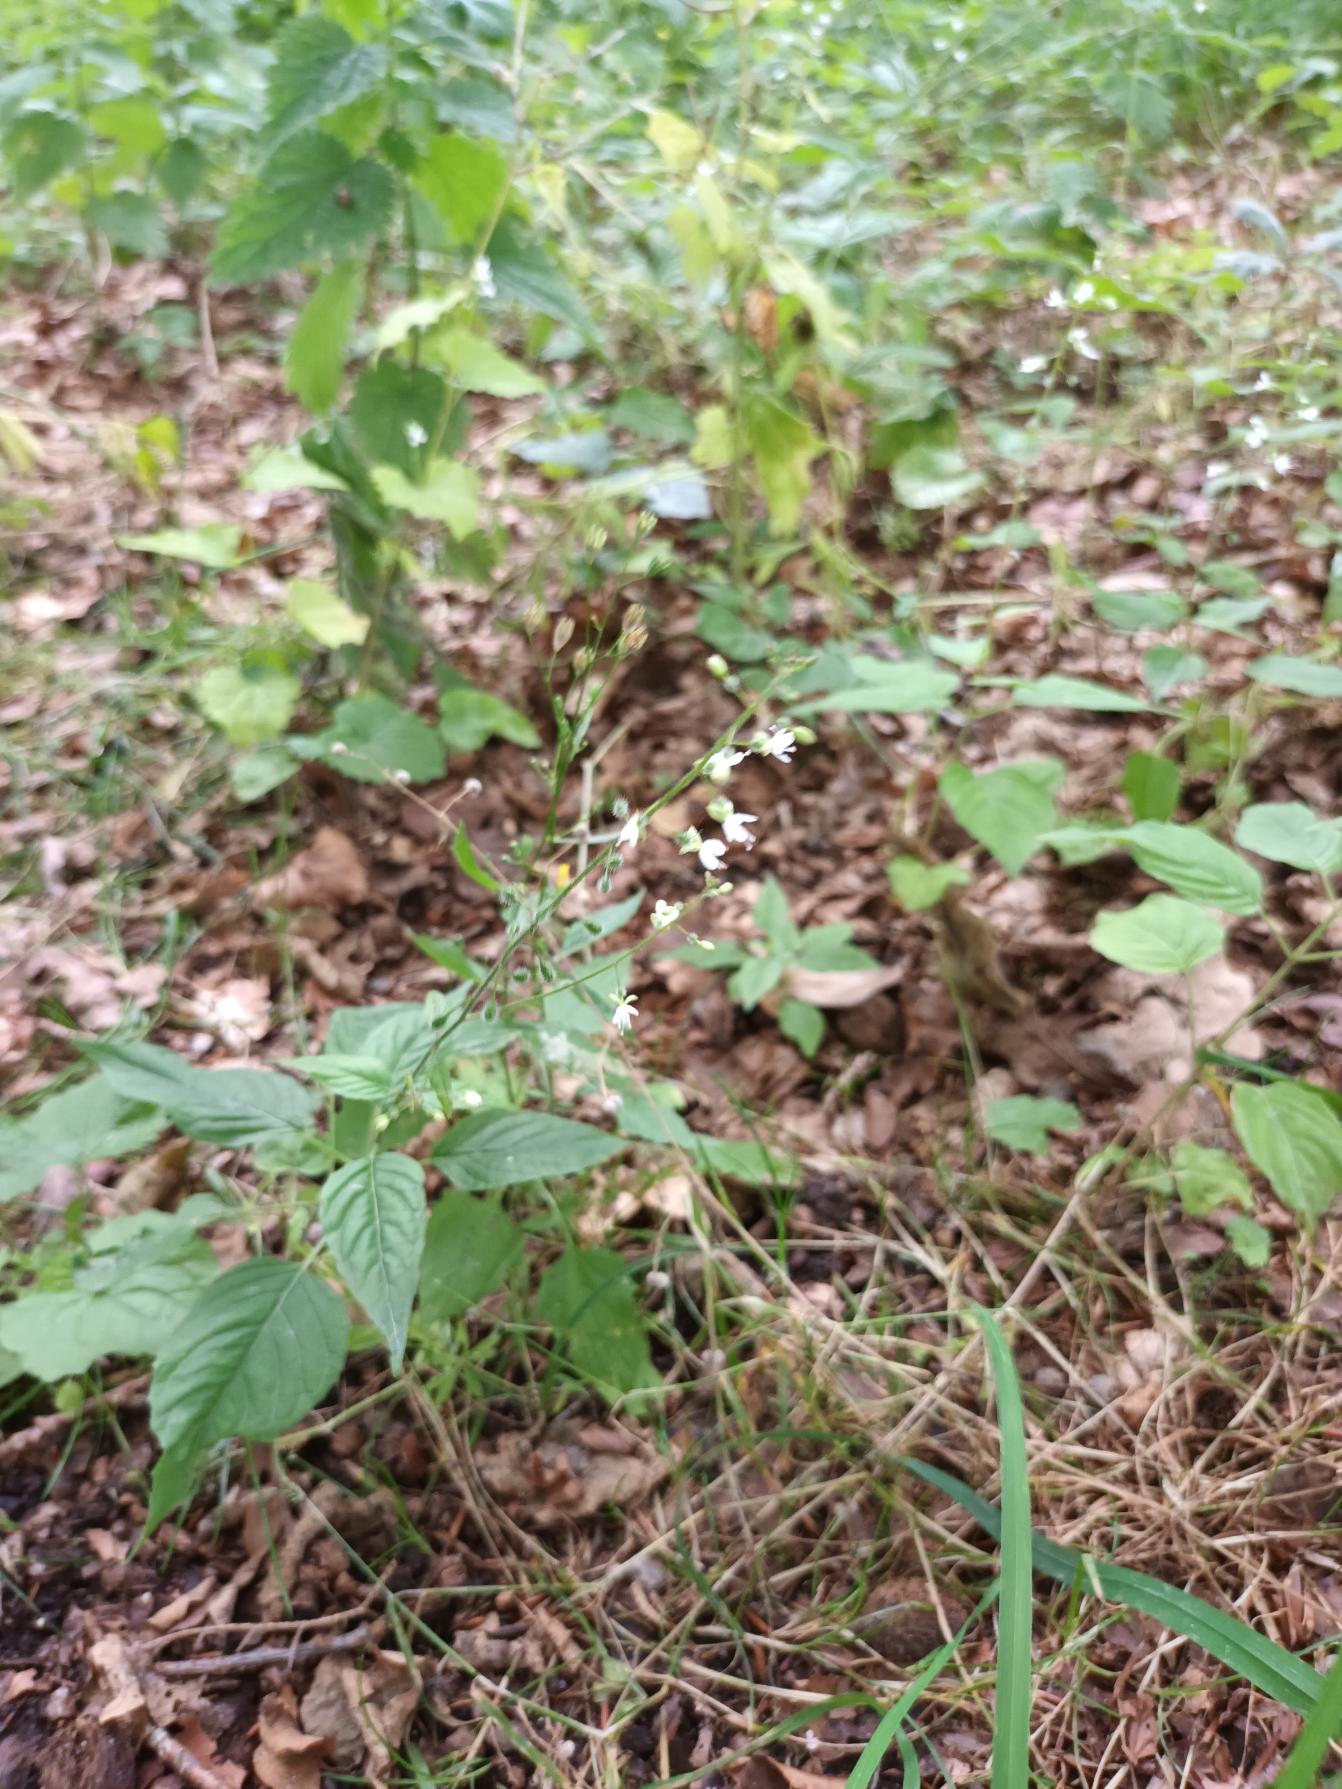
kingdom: Plantae
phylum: Tracheophyta
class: Magnoliopsida
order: Myrtales
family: Onagraceae
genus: Circaea
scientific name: Circaea lutetiana
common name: Dunet steffensurt
